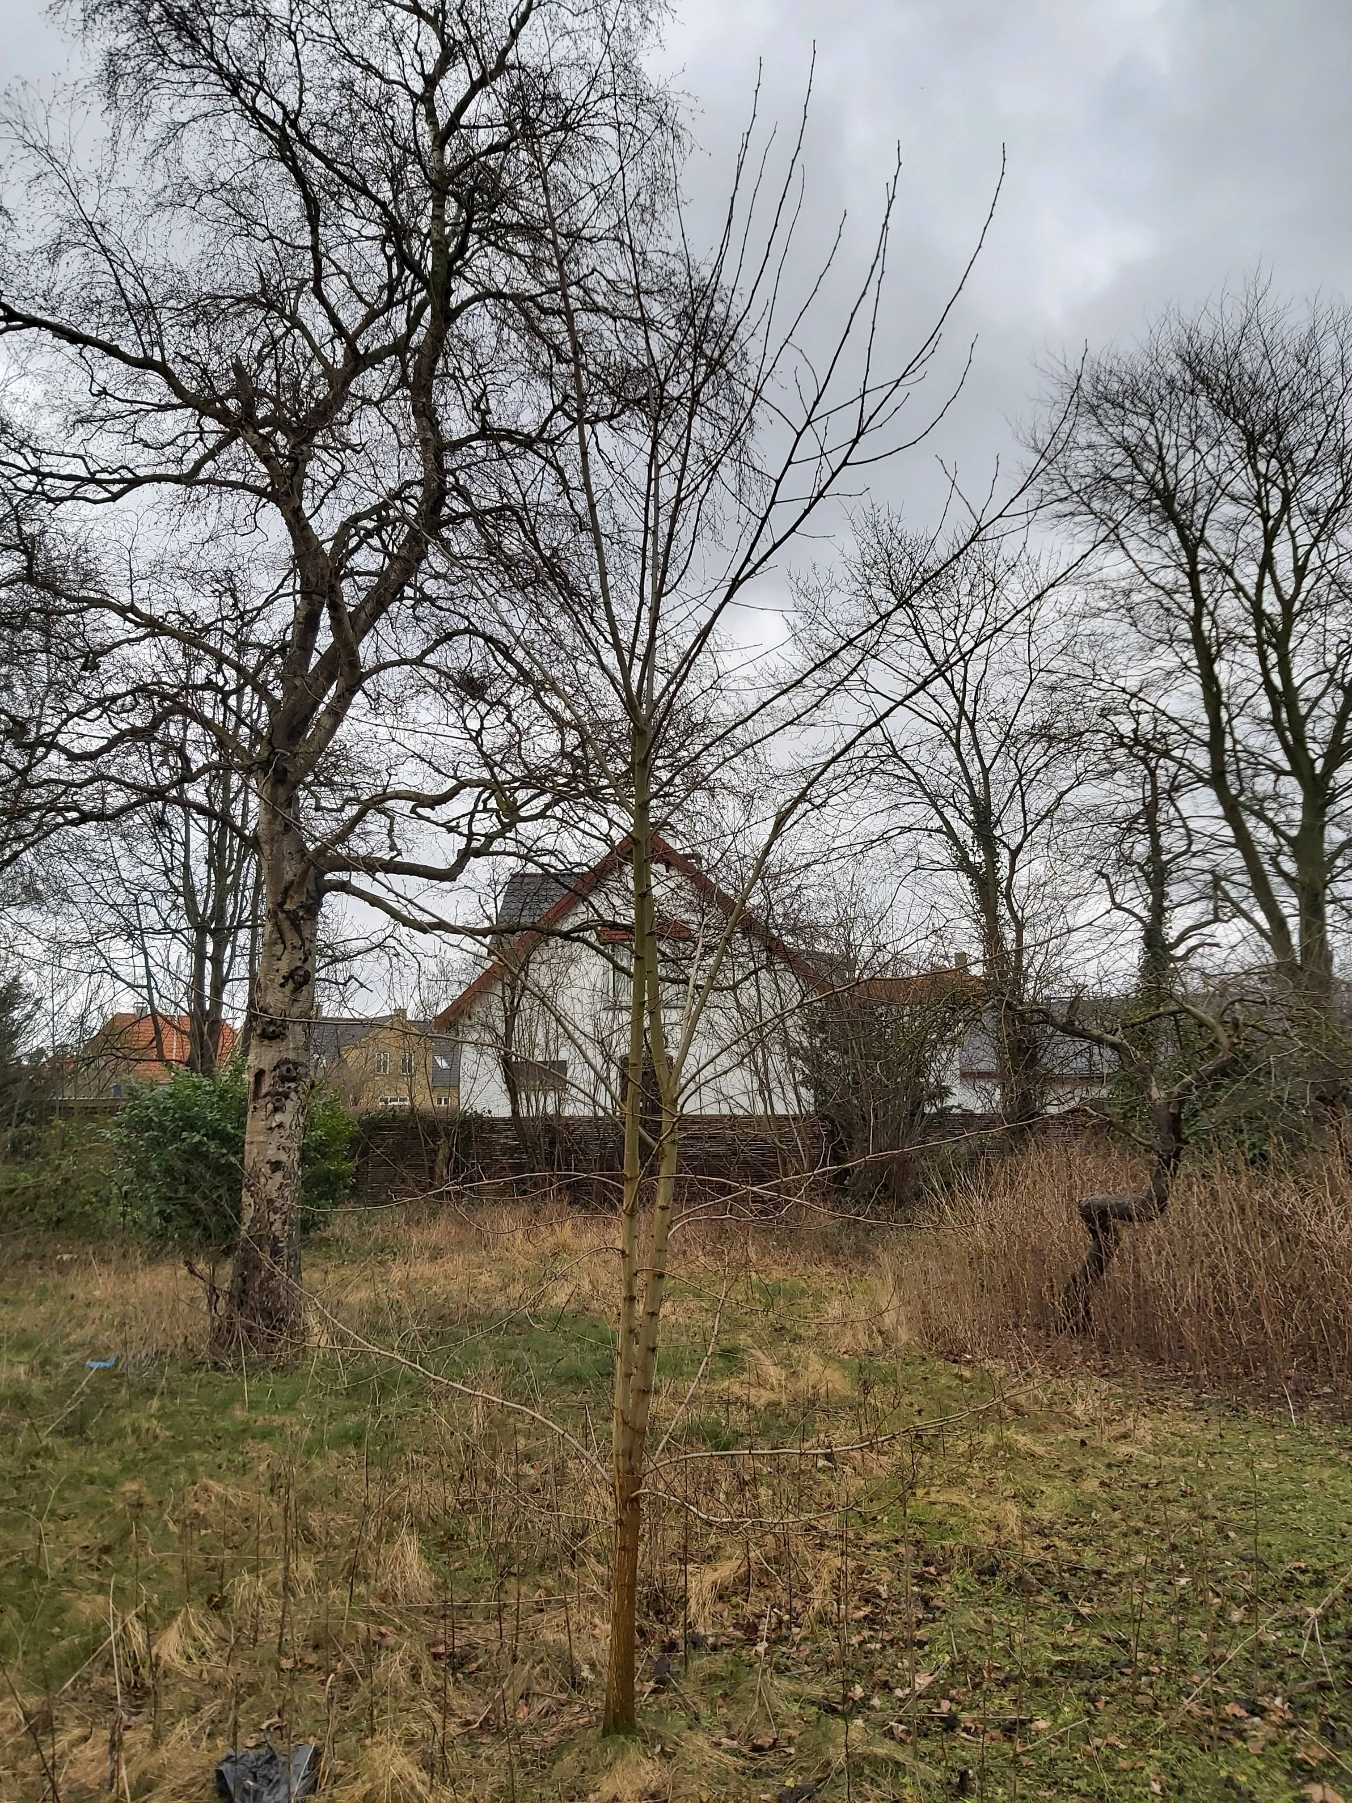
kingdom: Plantae
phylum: Tracheophyta
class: Magnoliopsida
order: Fabales
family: Fabaceae
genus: Robinia
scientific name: Robinia pseudoacacia
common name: Robinie
